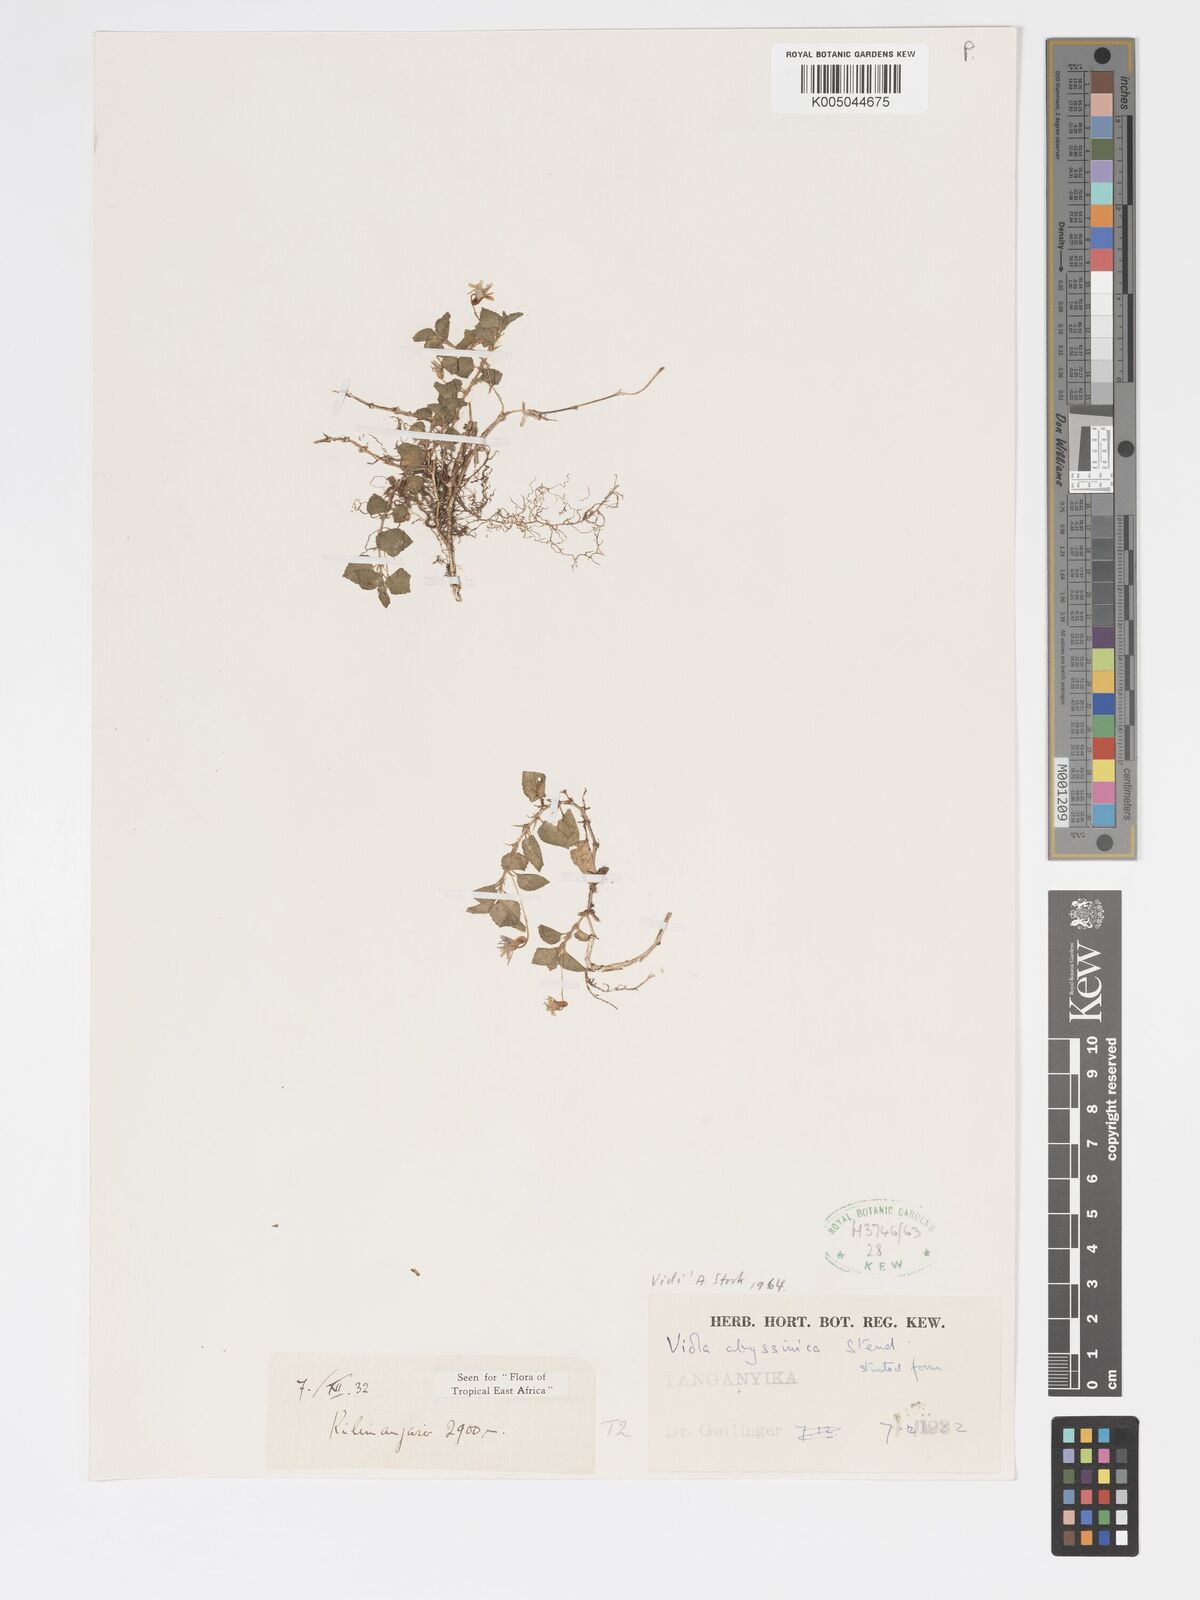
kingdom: Plantae
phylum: Tracheophyta
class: Magnoliopsida
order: Malpighiales
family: Violaceae
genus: Viola
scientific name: Viola abyssinica
